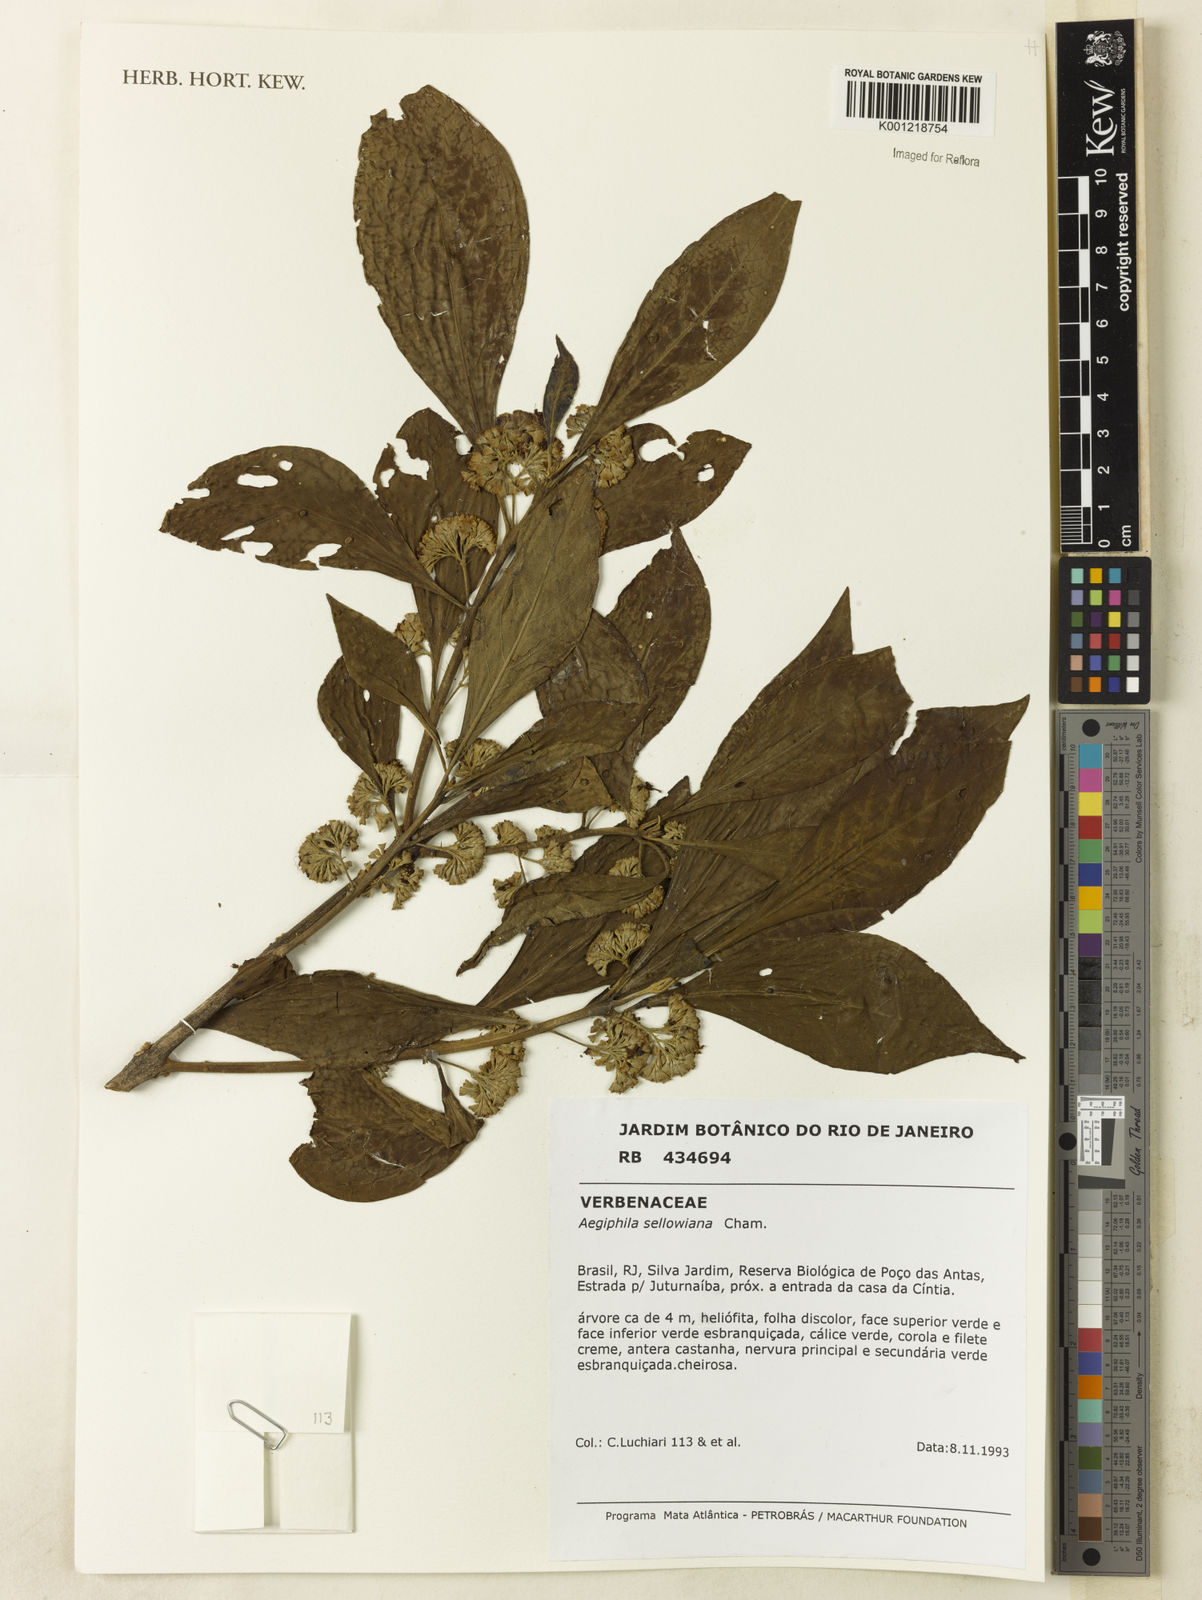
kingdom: Plantae
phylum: Tracheophyta
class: Magnoliopsida
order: Lamiales
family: Lamiaceae
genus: Aegiphila
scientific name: Aegiphila verticillata
